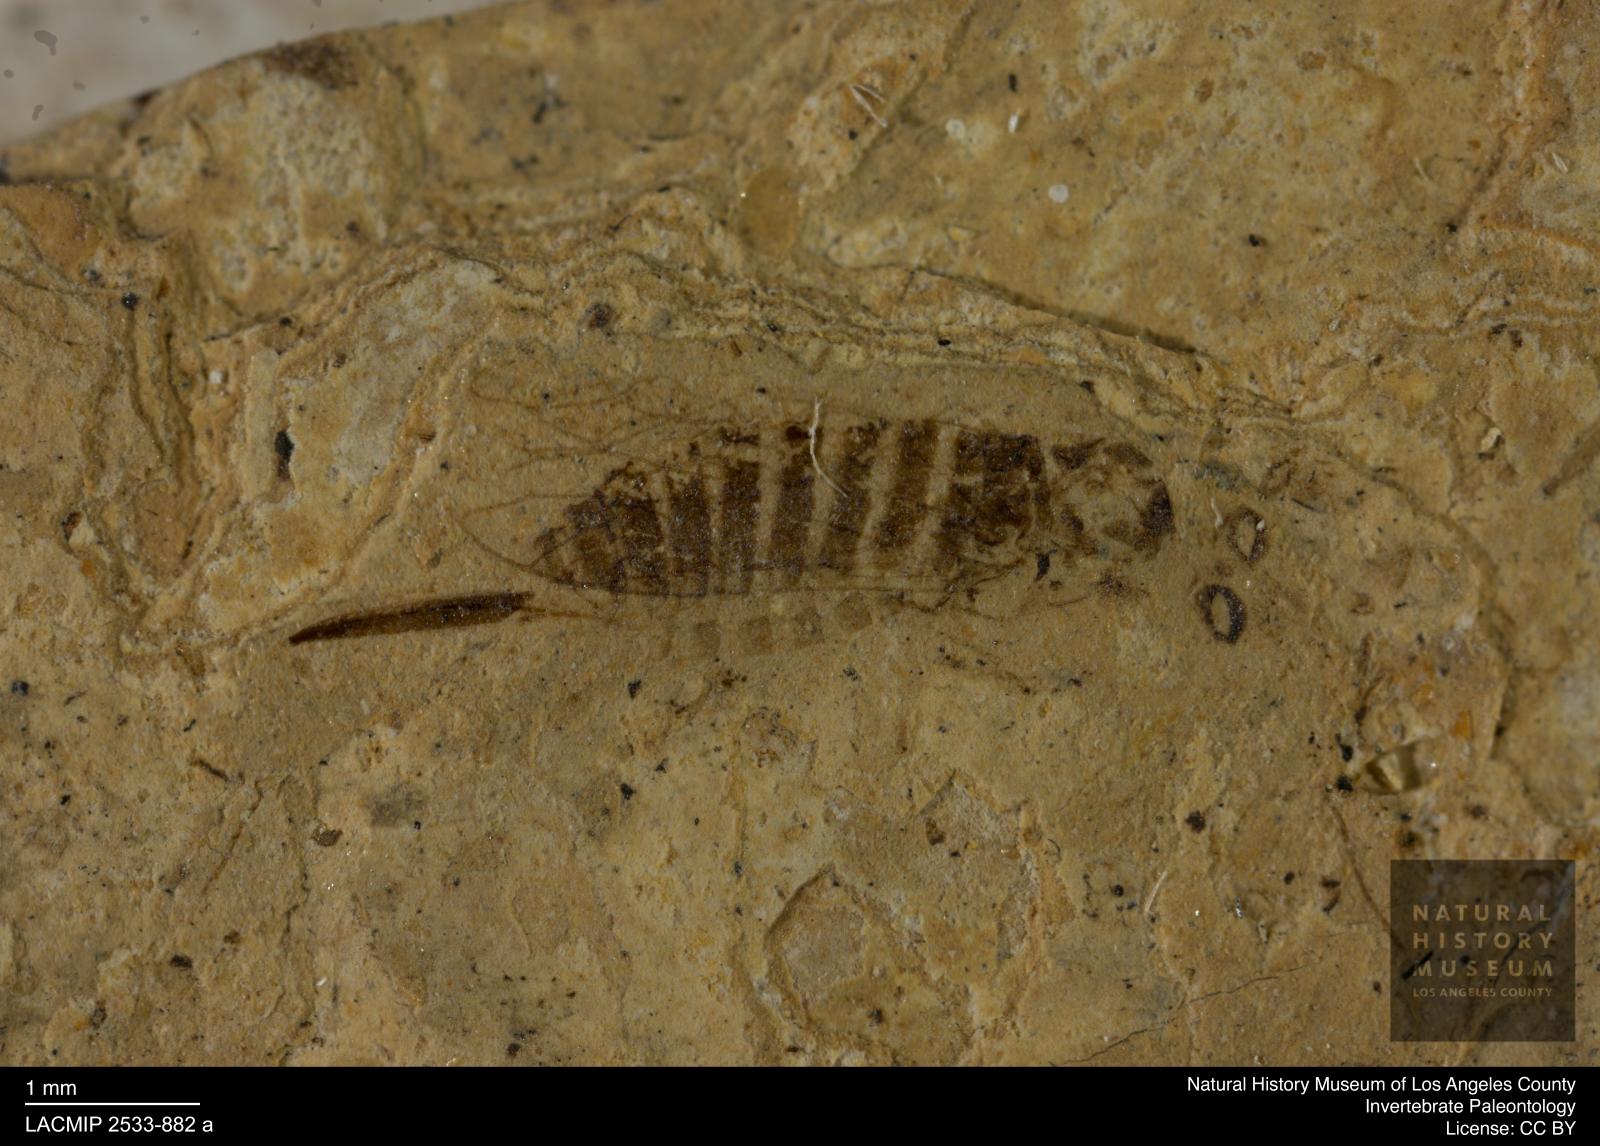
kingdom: Animalia
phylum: Arthropoda
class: Insecta
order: Hymenoptera
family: Xyelidae
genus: Xyela
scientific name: Xyela julii
